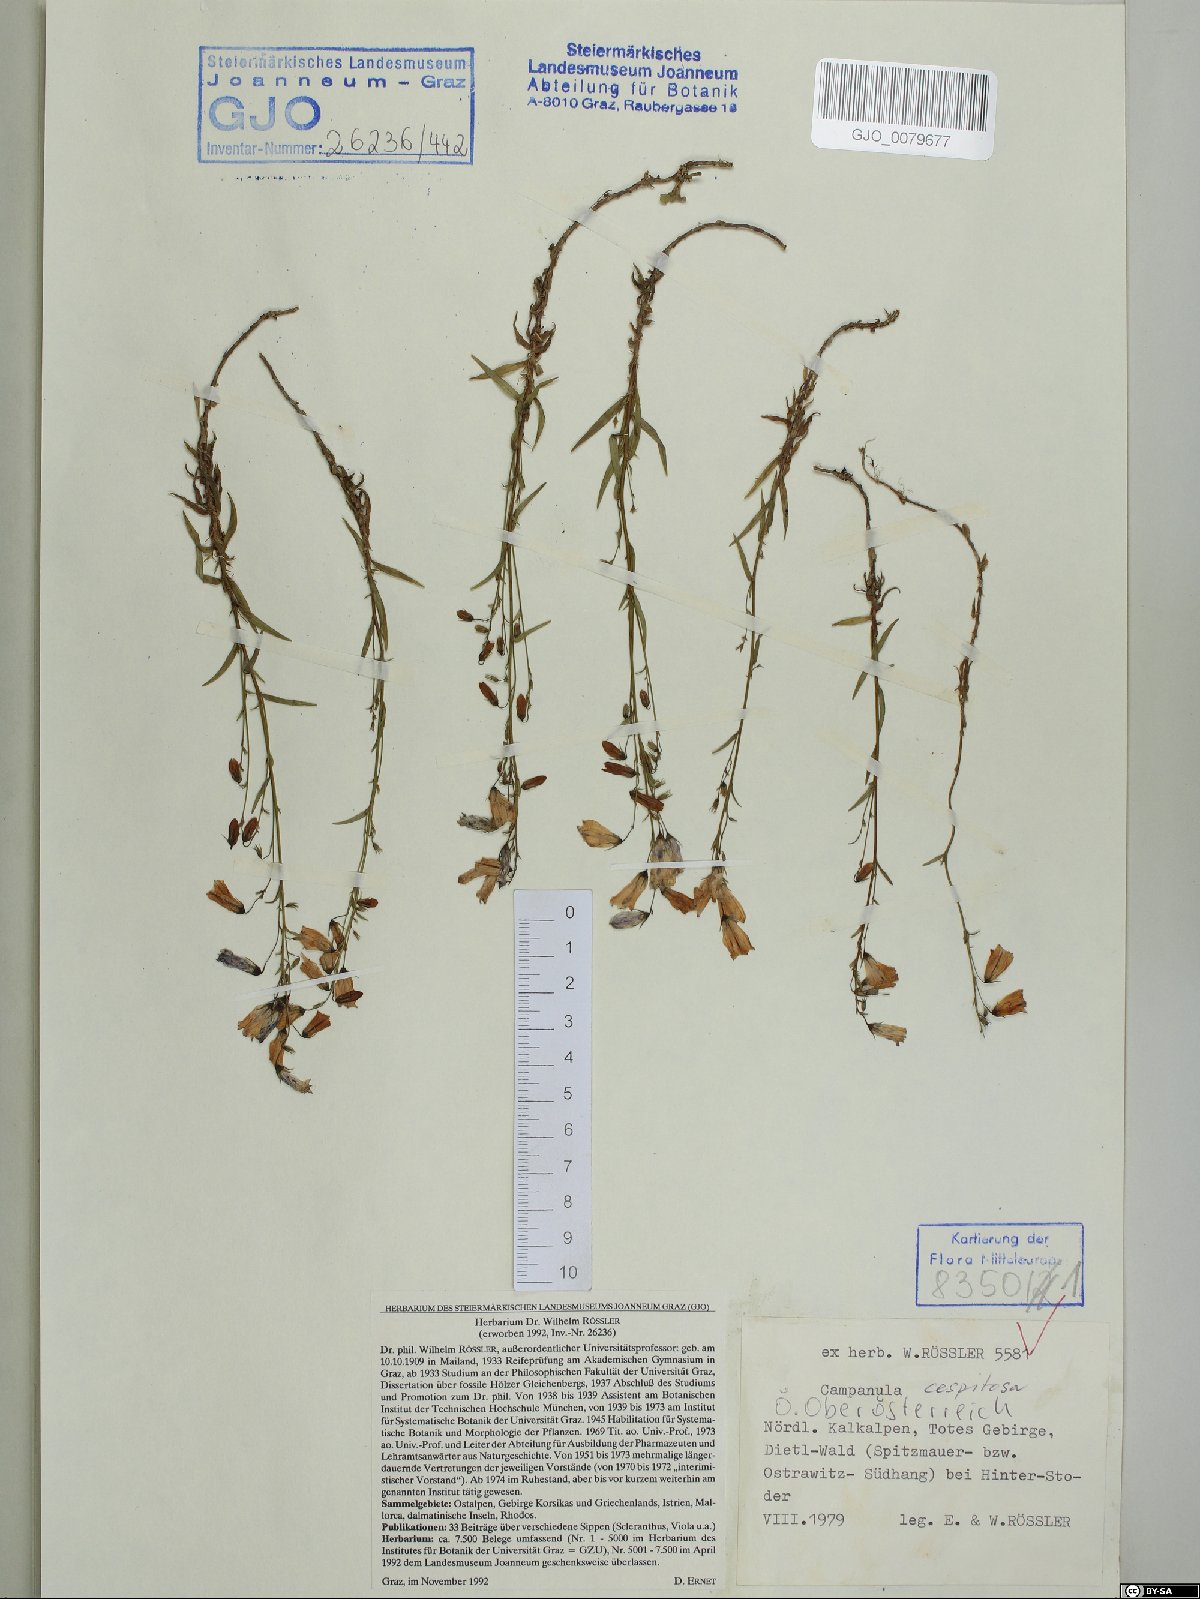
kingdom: Plantae
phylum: Tracheophyta
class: Magnoliopsida
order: Asterales
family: Campanulaceae
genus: Campanula
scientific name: Campanula cespitosa
